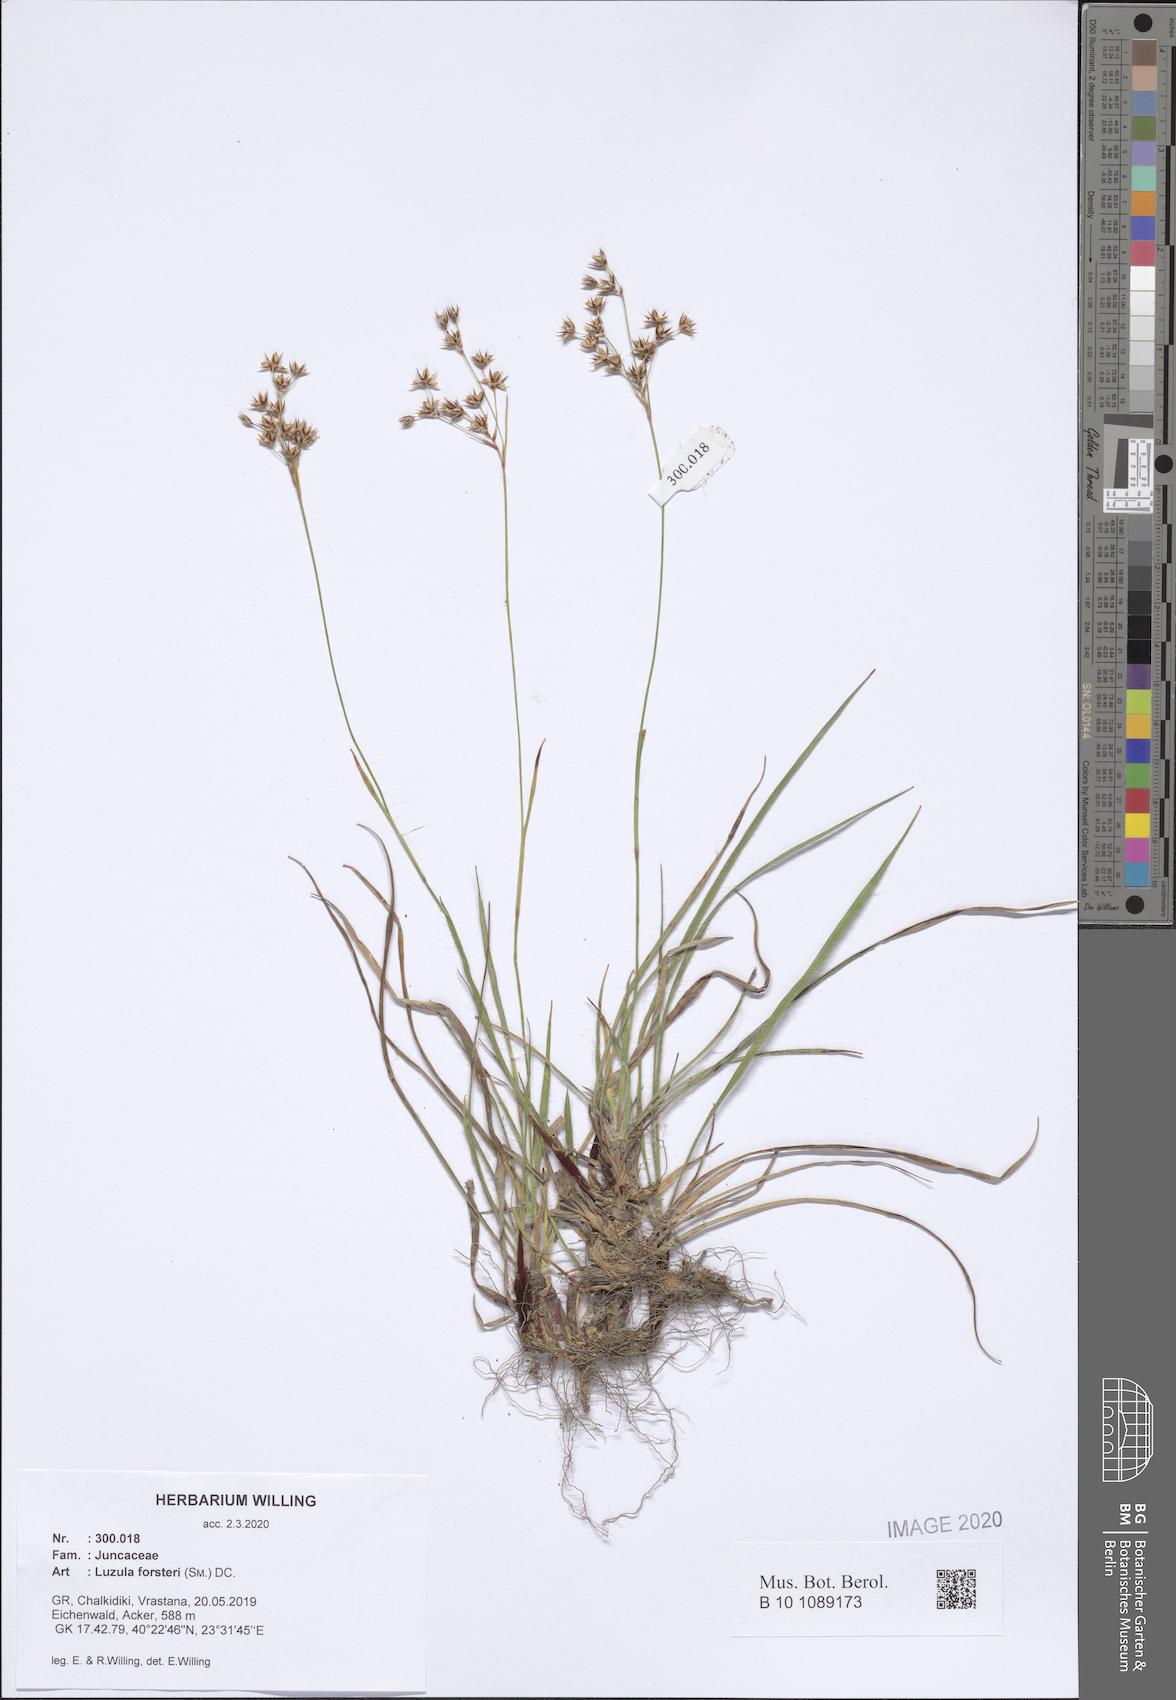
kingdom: Plantae
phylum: Tracheophyta
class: Liliopsida
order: Poales
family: Juncaceae
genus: Luzula
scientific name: Luzula forsteri
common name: Southern wood-rush
